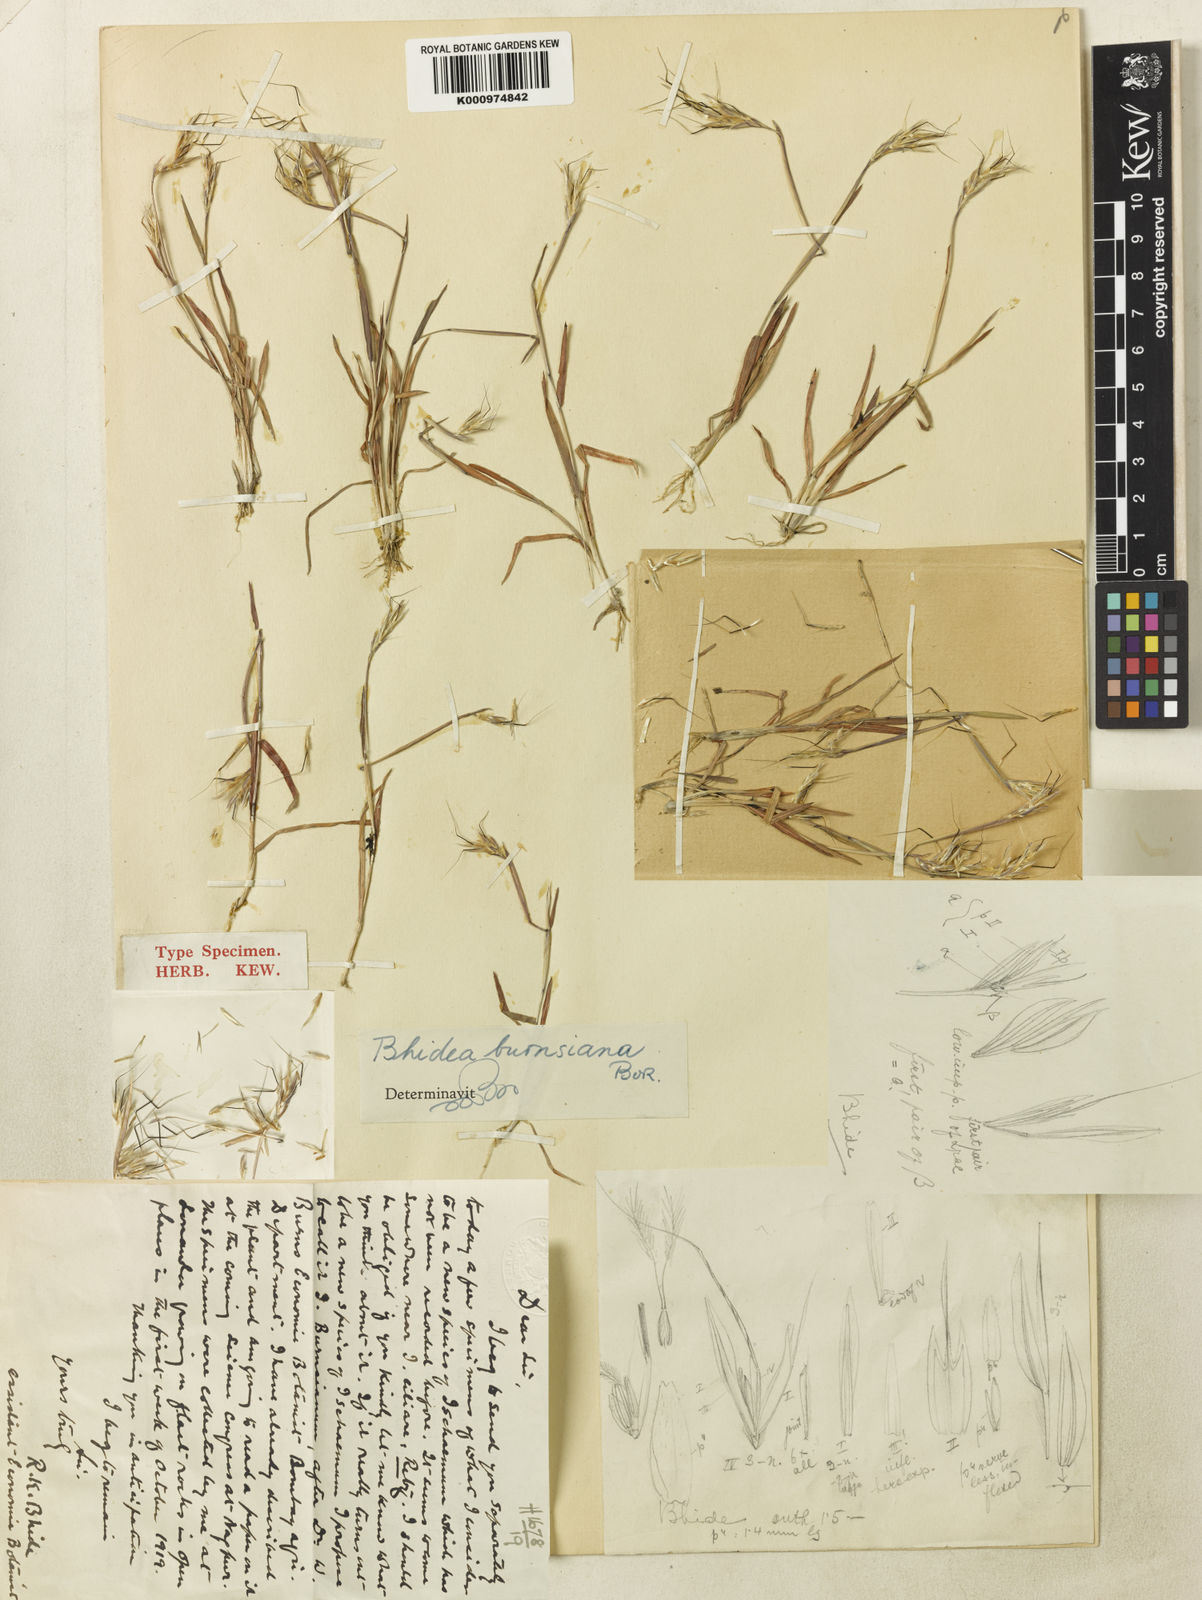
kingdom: Plantae
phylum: Tracheophyta
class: Liliopsida
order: Poales
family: Poaceae
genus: Bhidea
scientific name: Bhidea burnsiana
